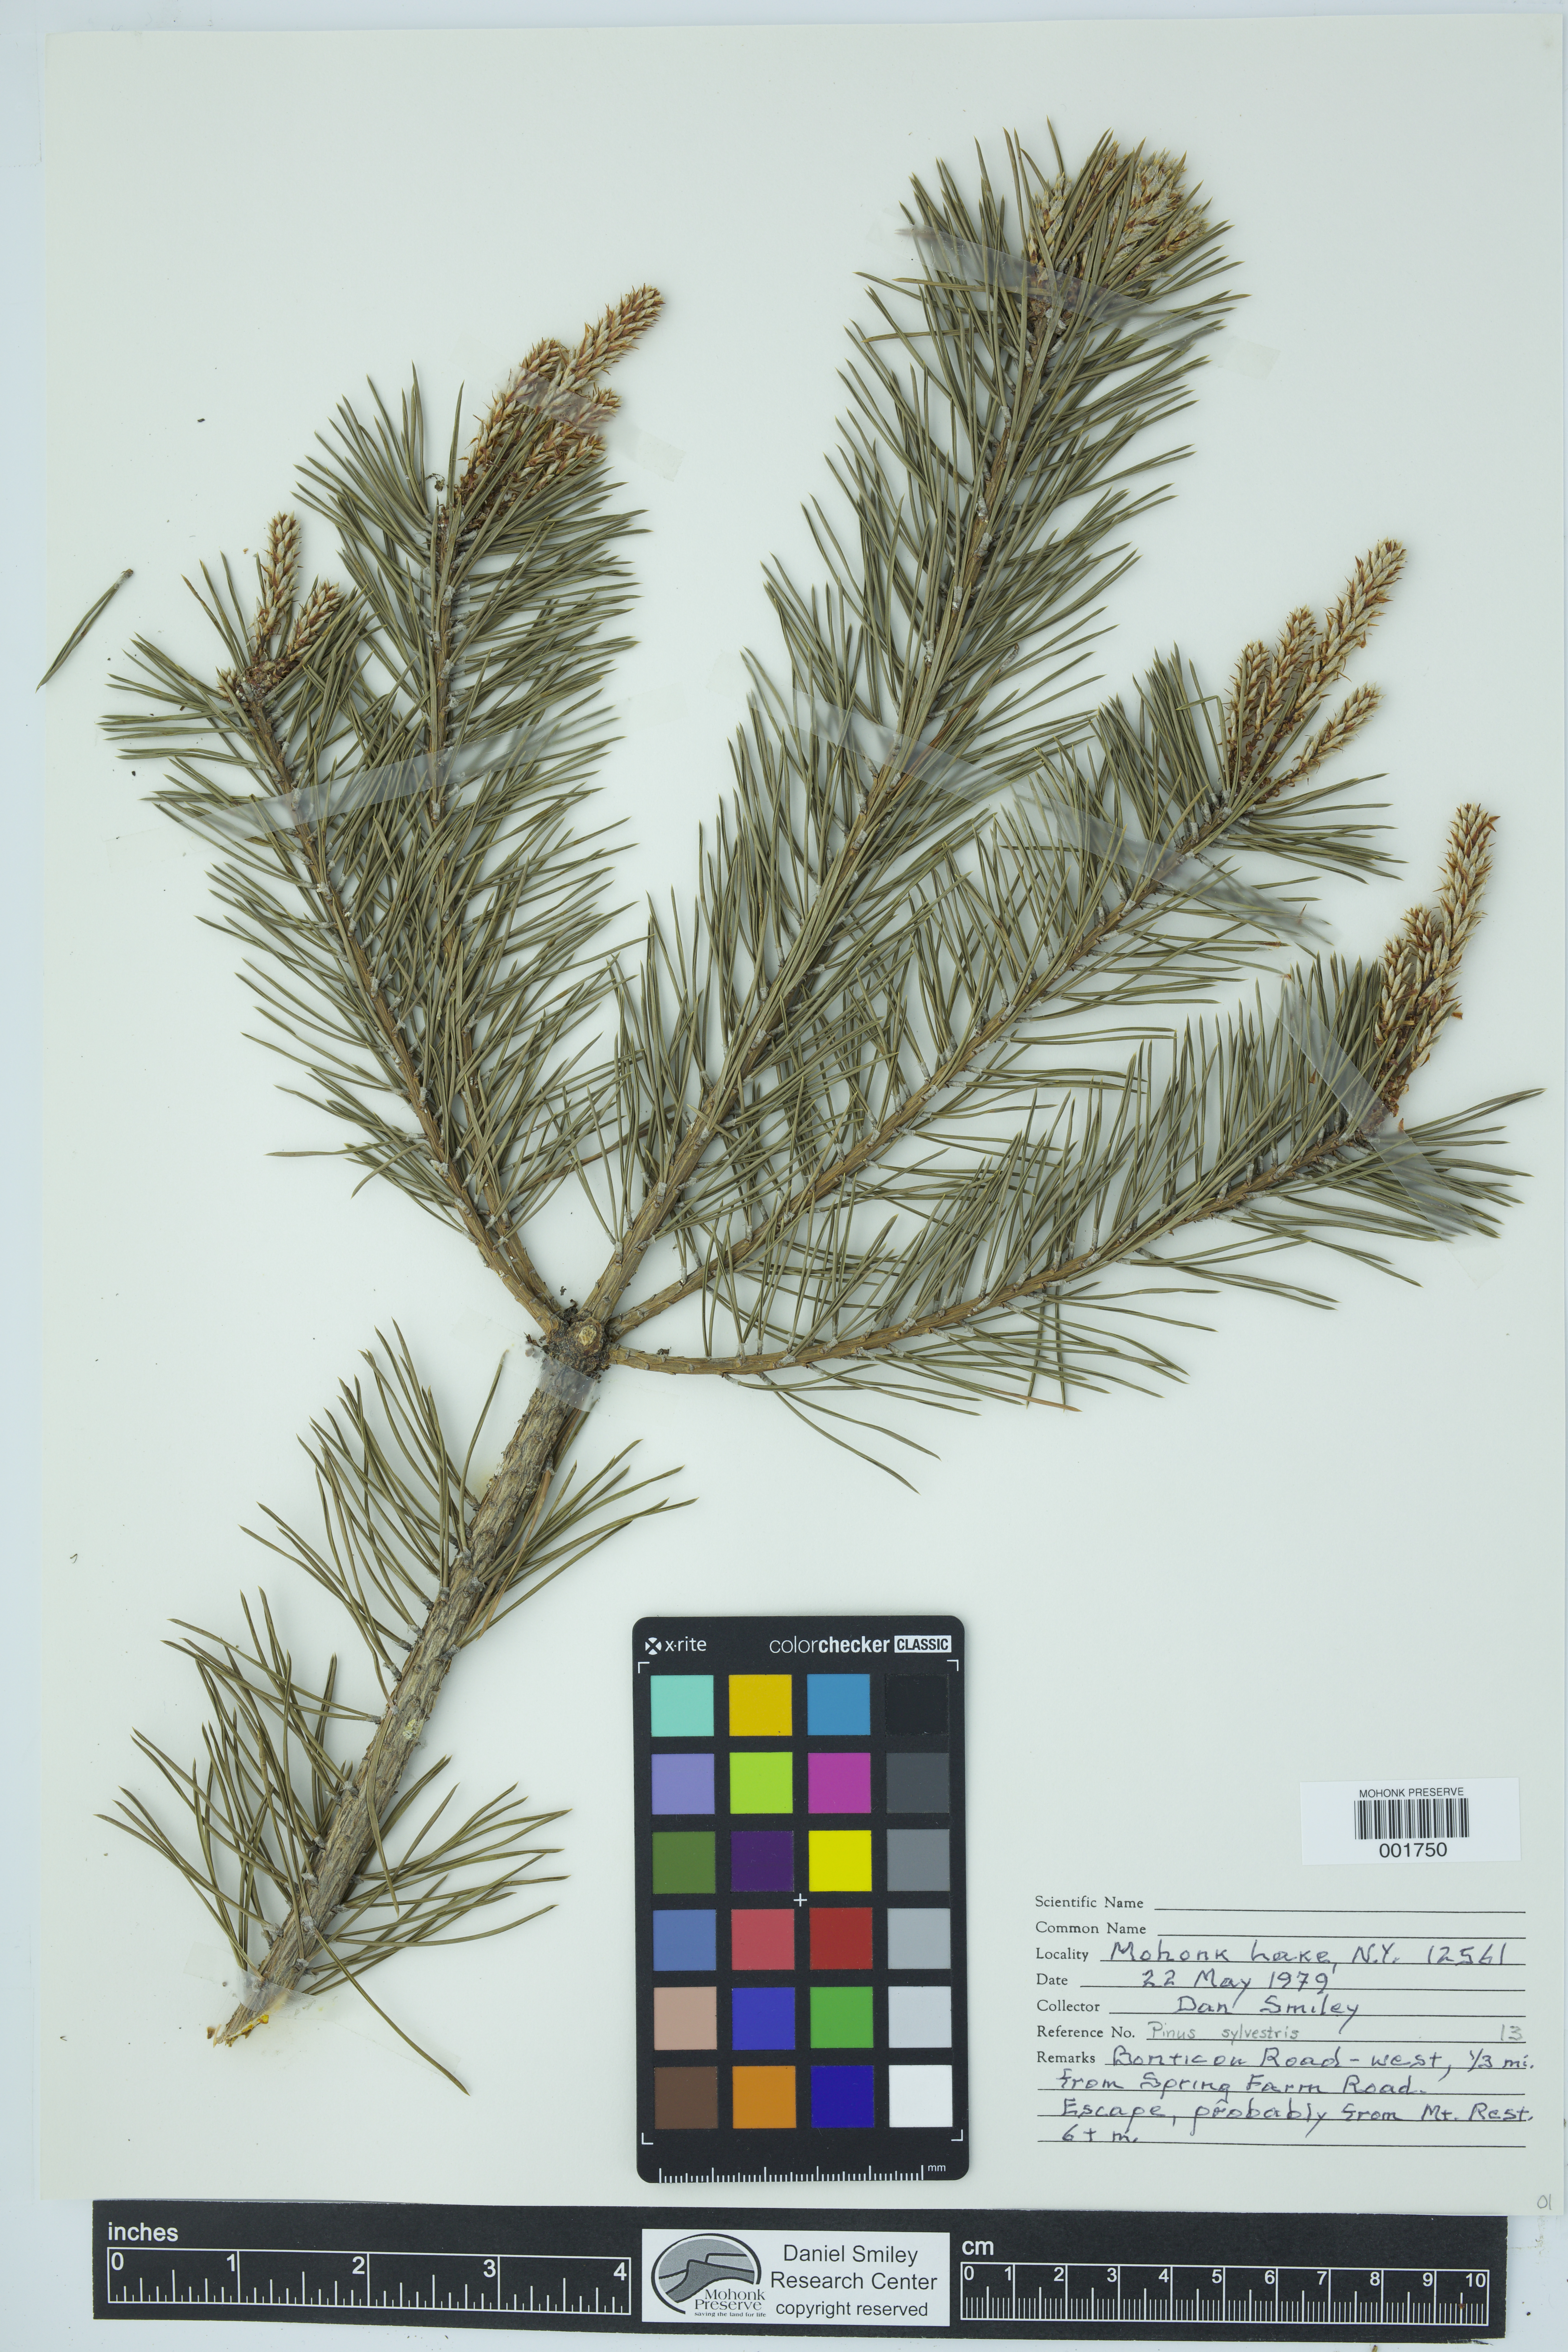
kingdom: Plantae
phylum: Tracheophyta
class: Pinopsida
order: Pinales
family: Pinaceae
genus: Pinus
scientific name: Pinus sylvestris
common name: Scots pine
